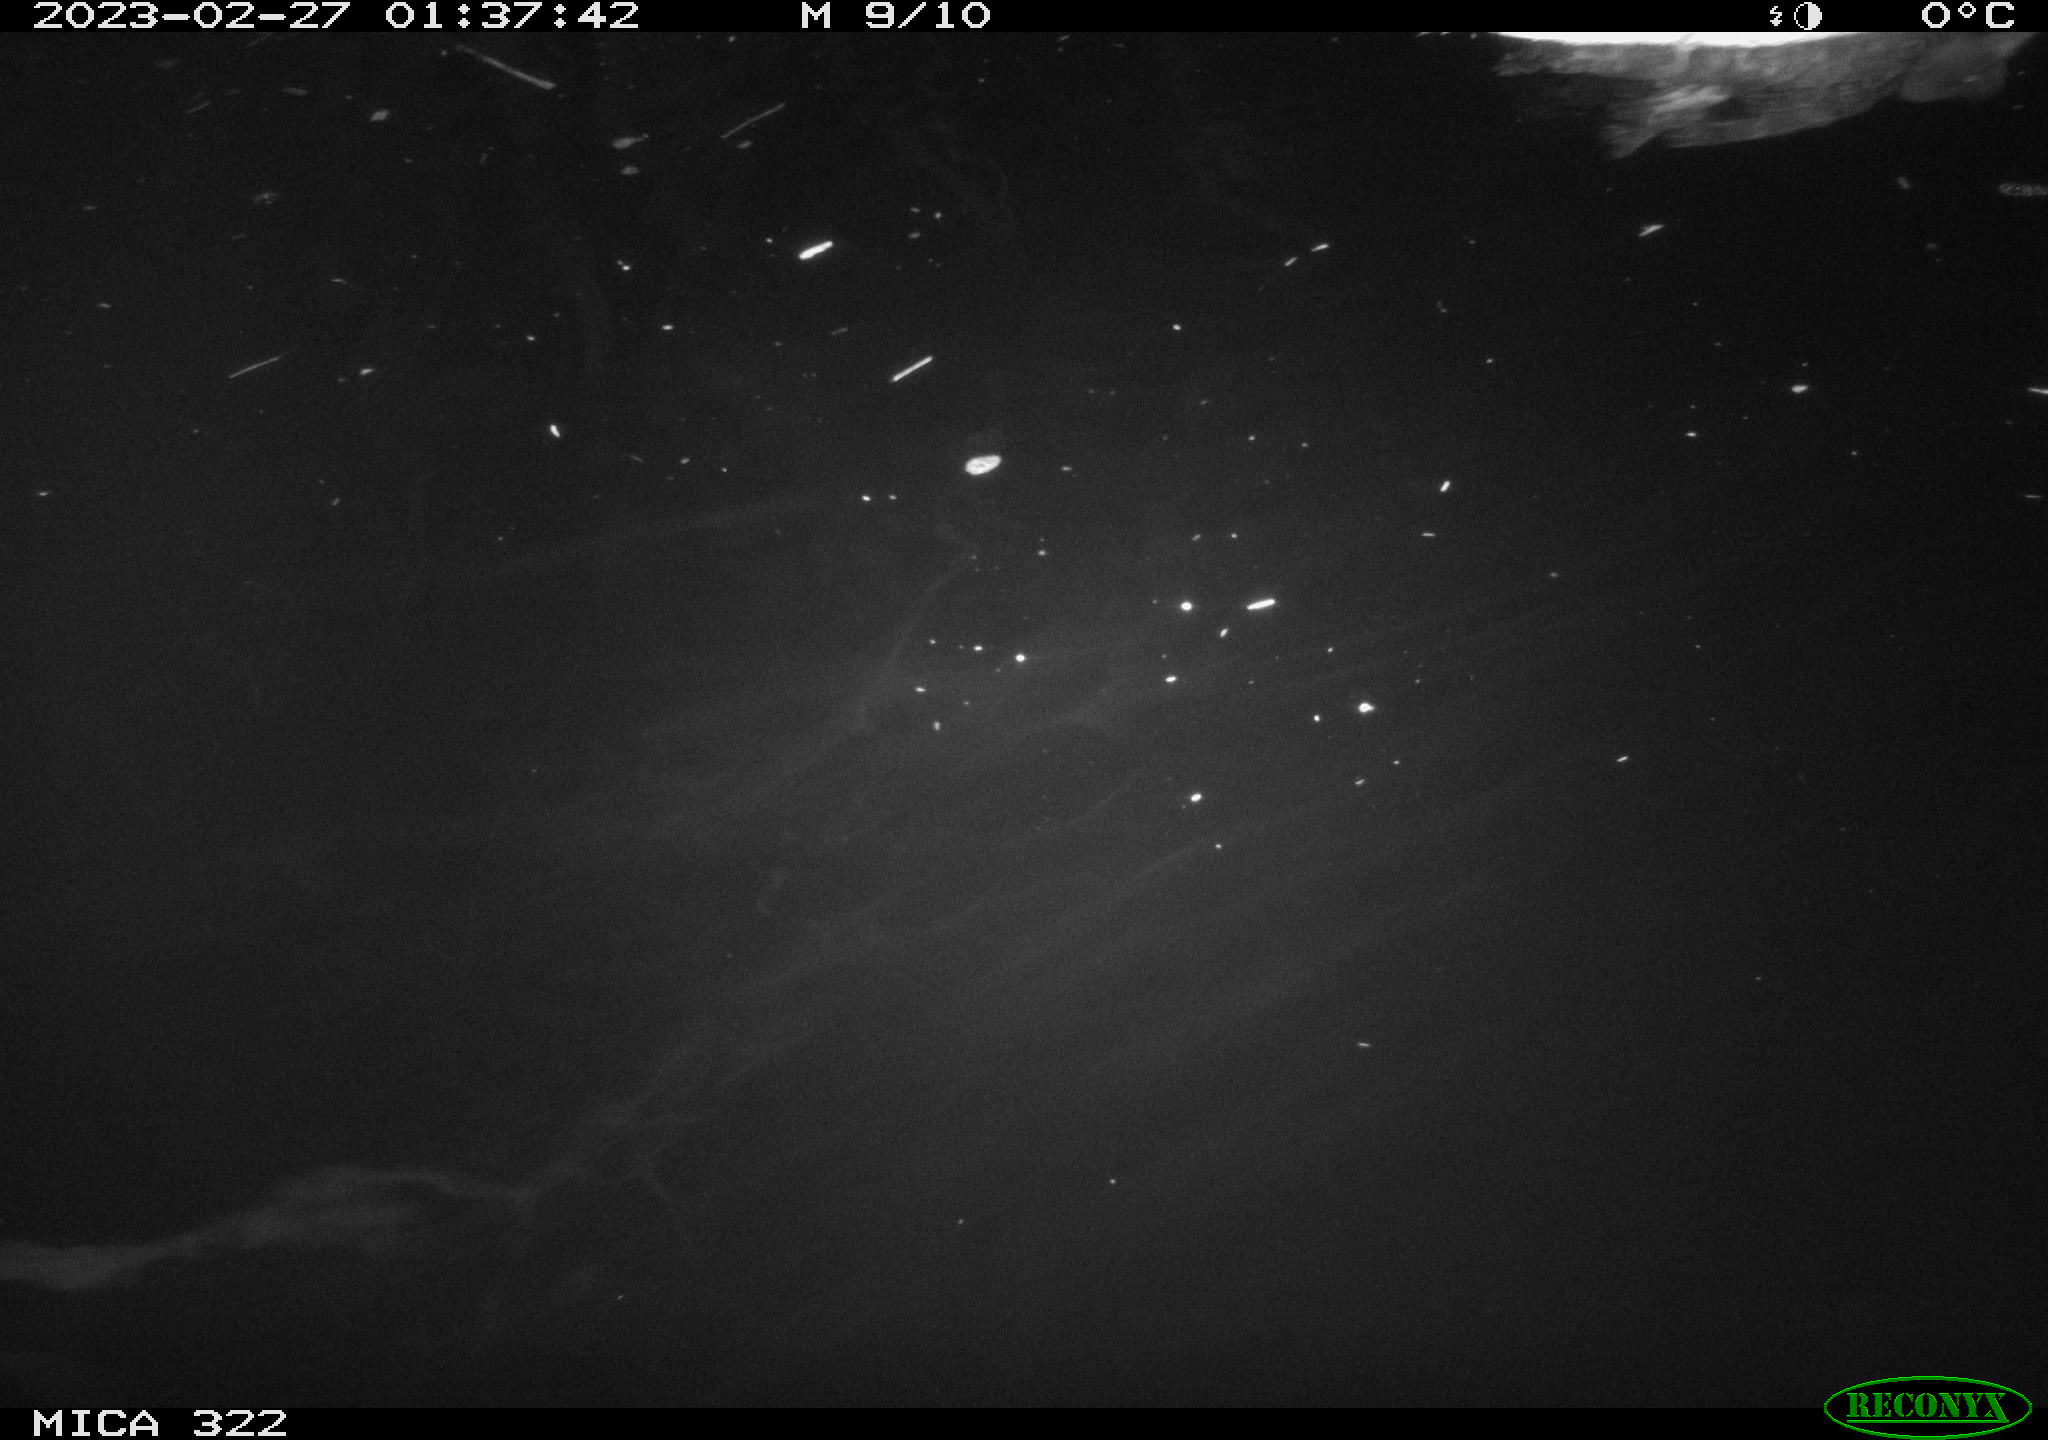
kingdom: Animalia
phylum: Chordata
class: Aves
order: Anseriformes
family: Anatidae
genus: Anas
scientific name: Anas
